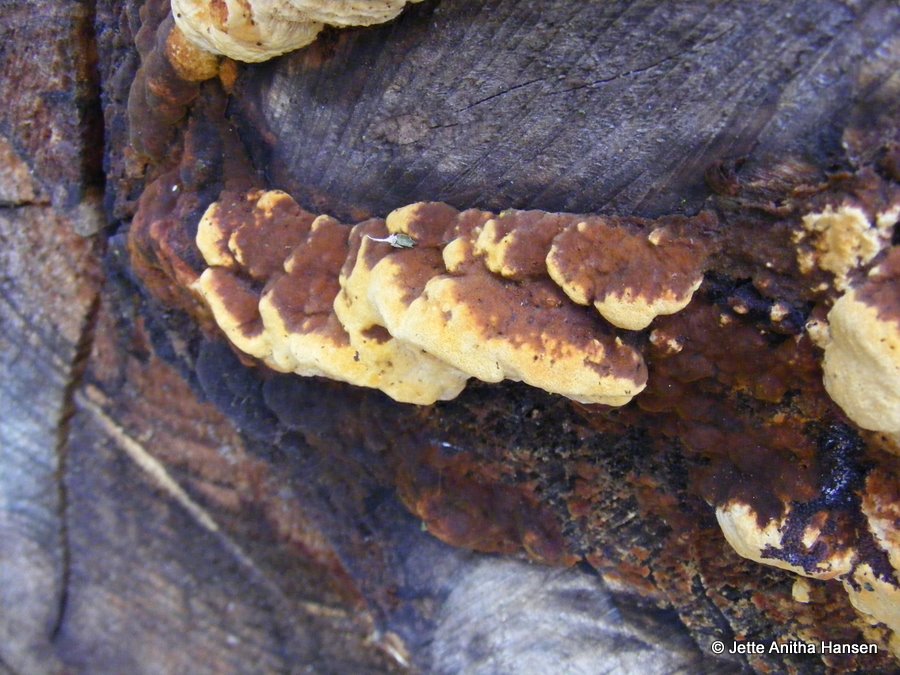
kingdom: Fungi
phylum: Basidiomycota
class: Agaricomycetes
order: Gloeophyllales
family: Gloeophyllaceae
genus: Gloeophyllum
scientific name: Gloeophyllum odoratum
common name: duftende korkhat
